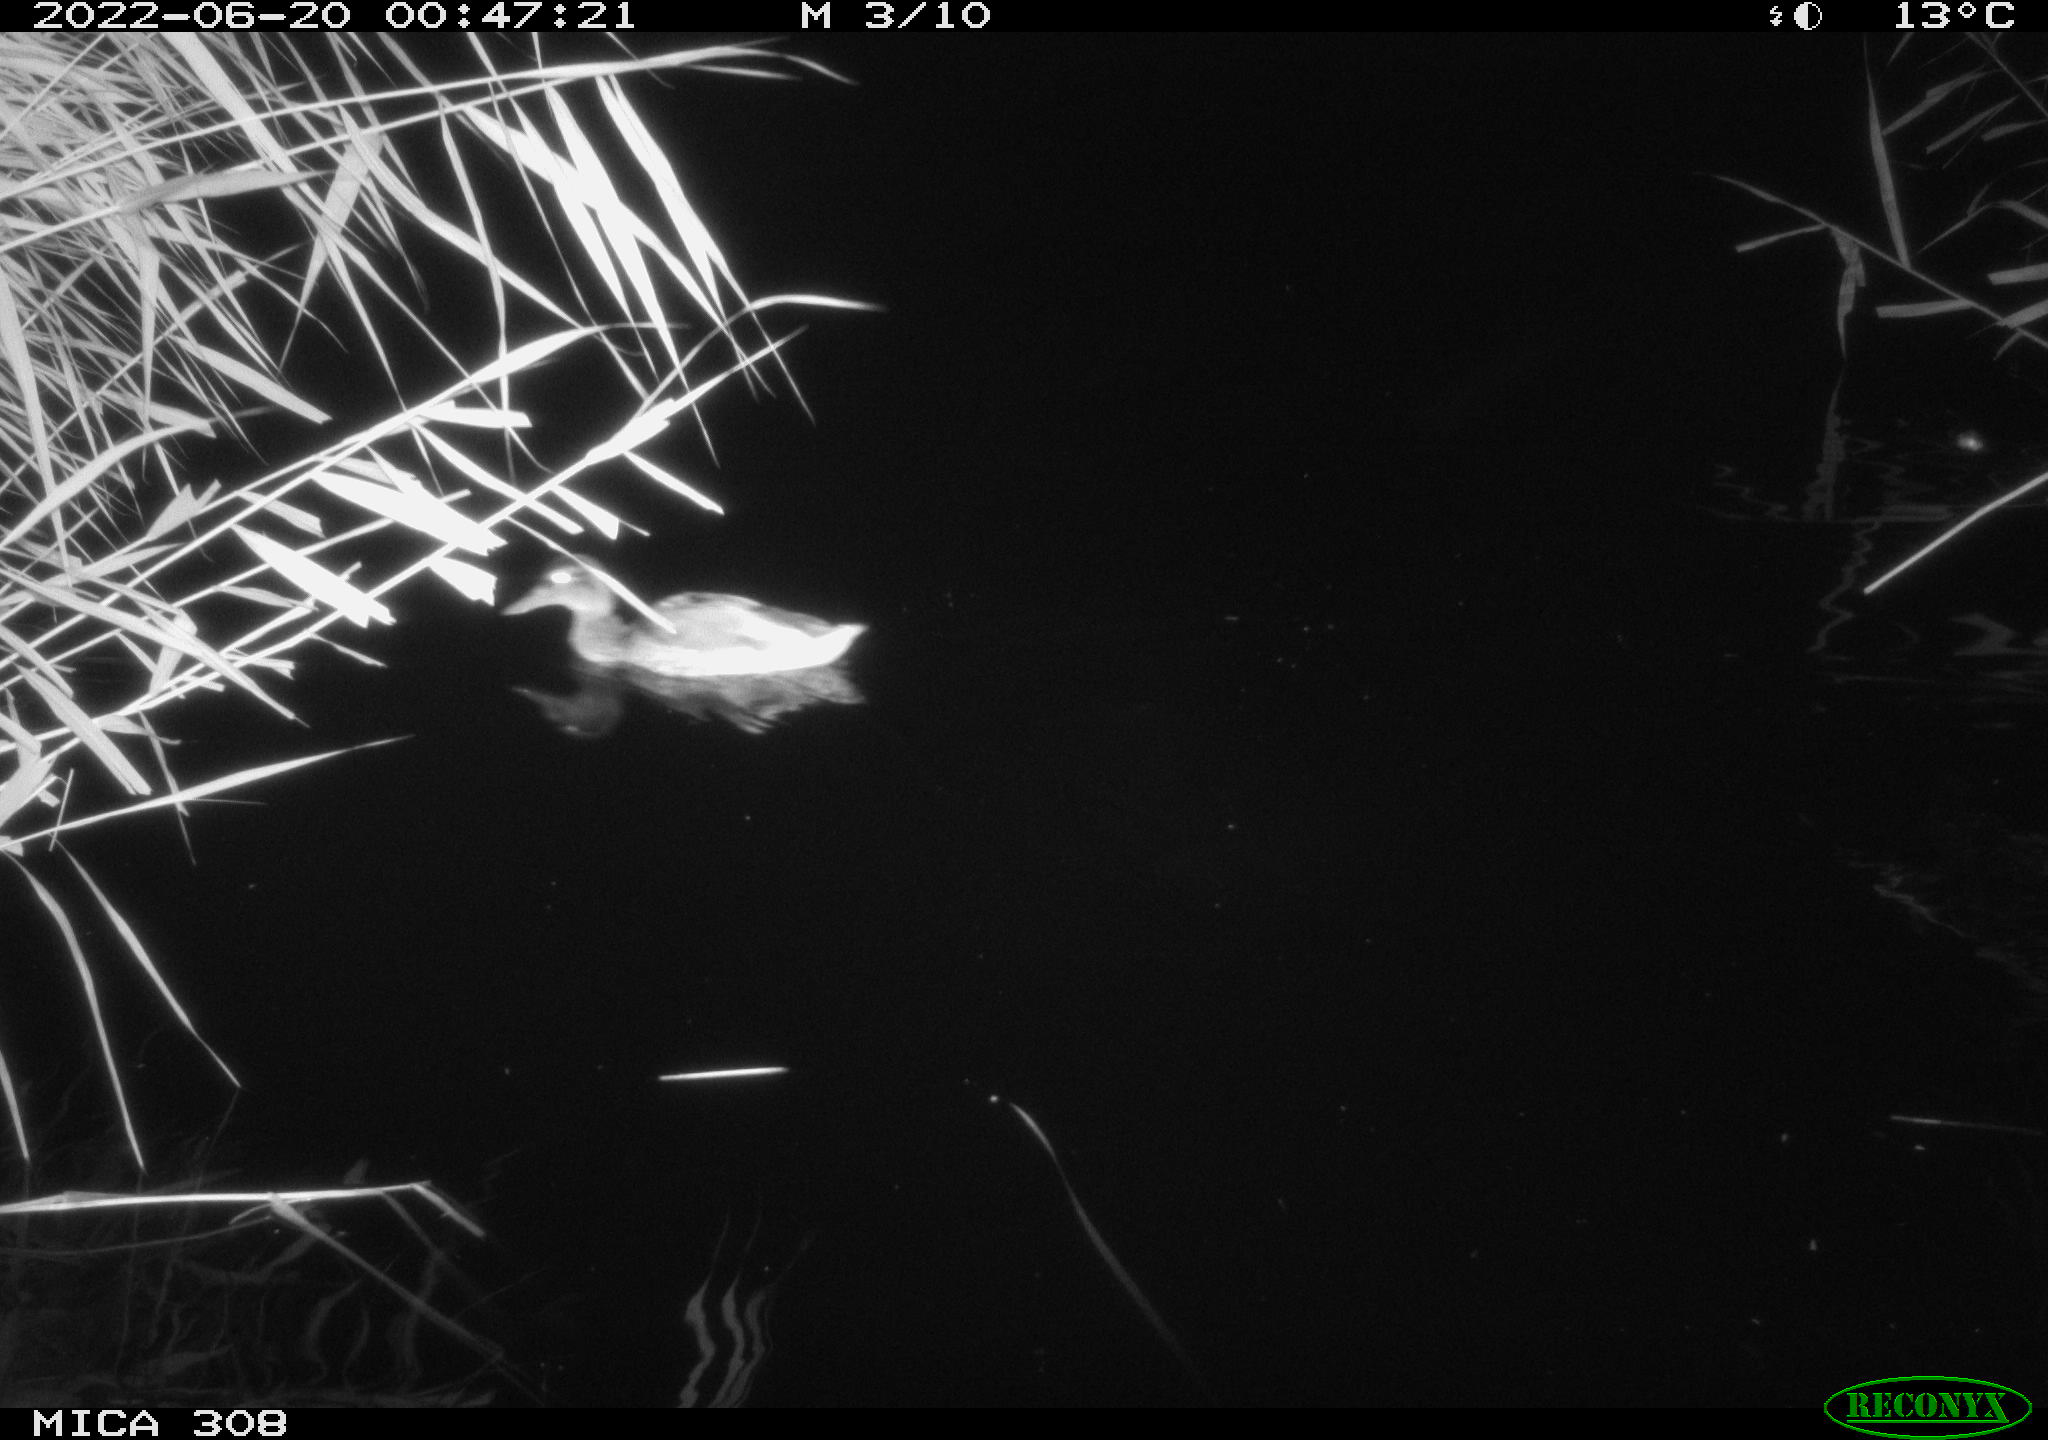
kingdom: Animalia
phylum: Chordata
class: Aves
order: Anseriformes
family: Anatidae
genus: Anas
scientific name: Anas platyrhynchos
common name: Mallard
